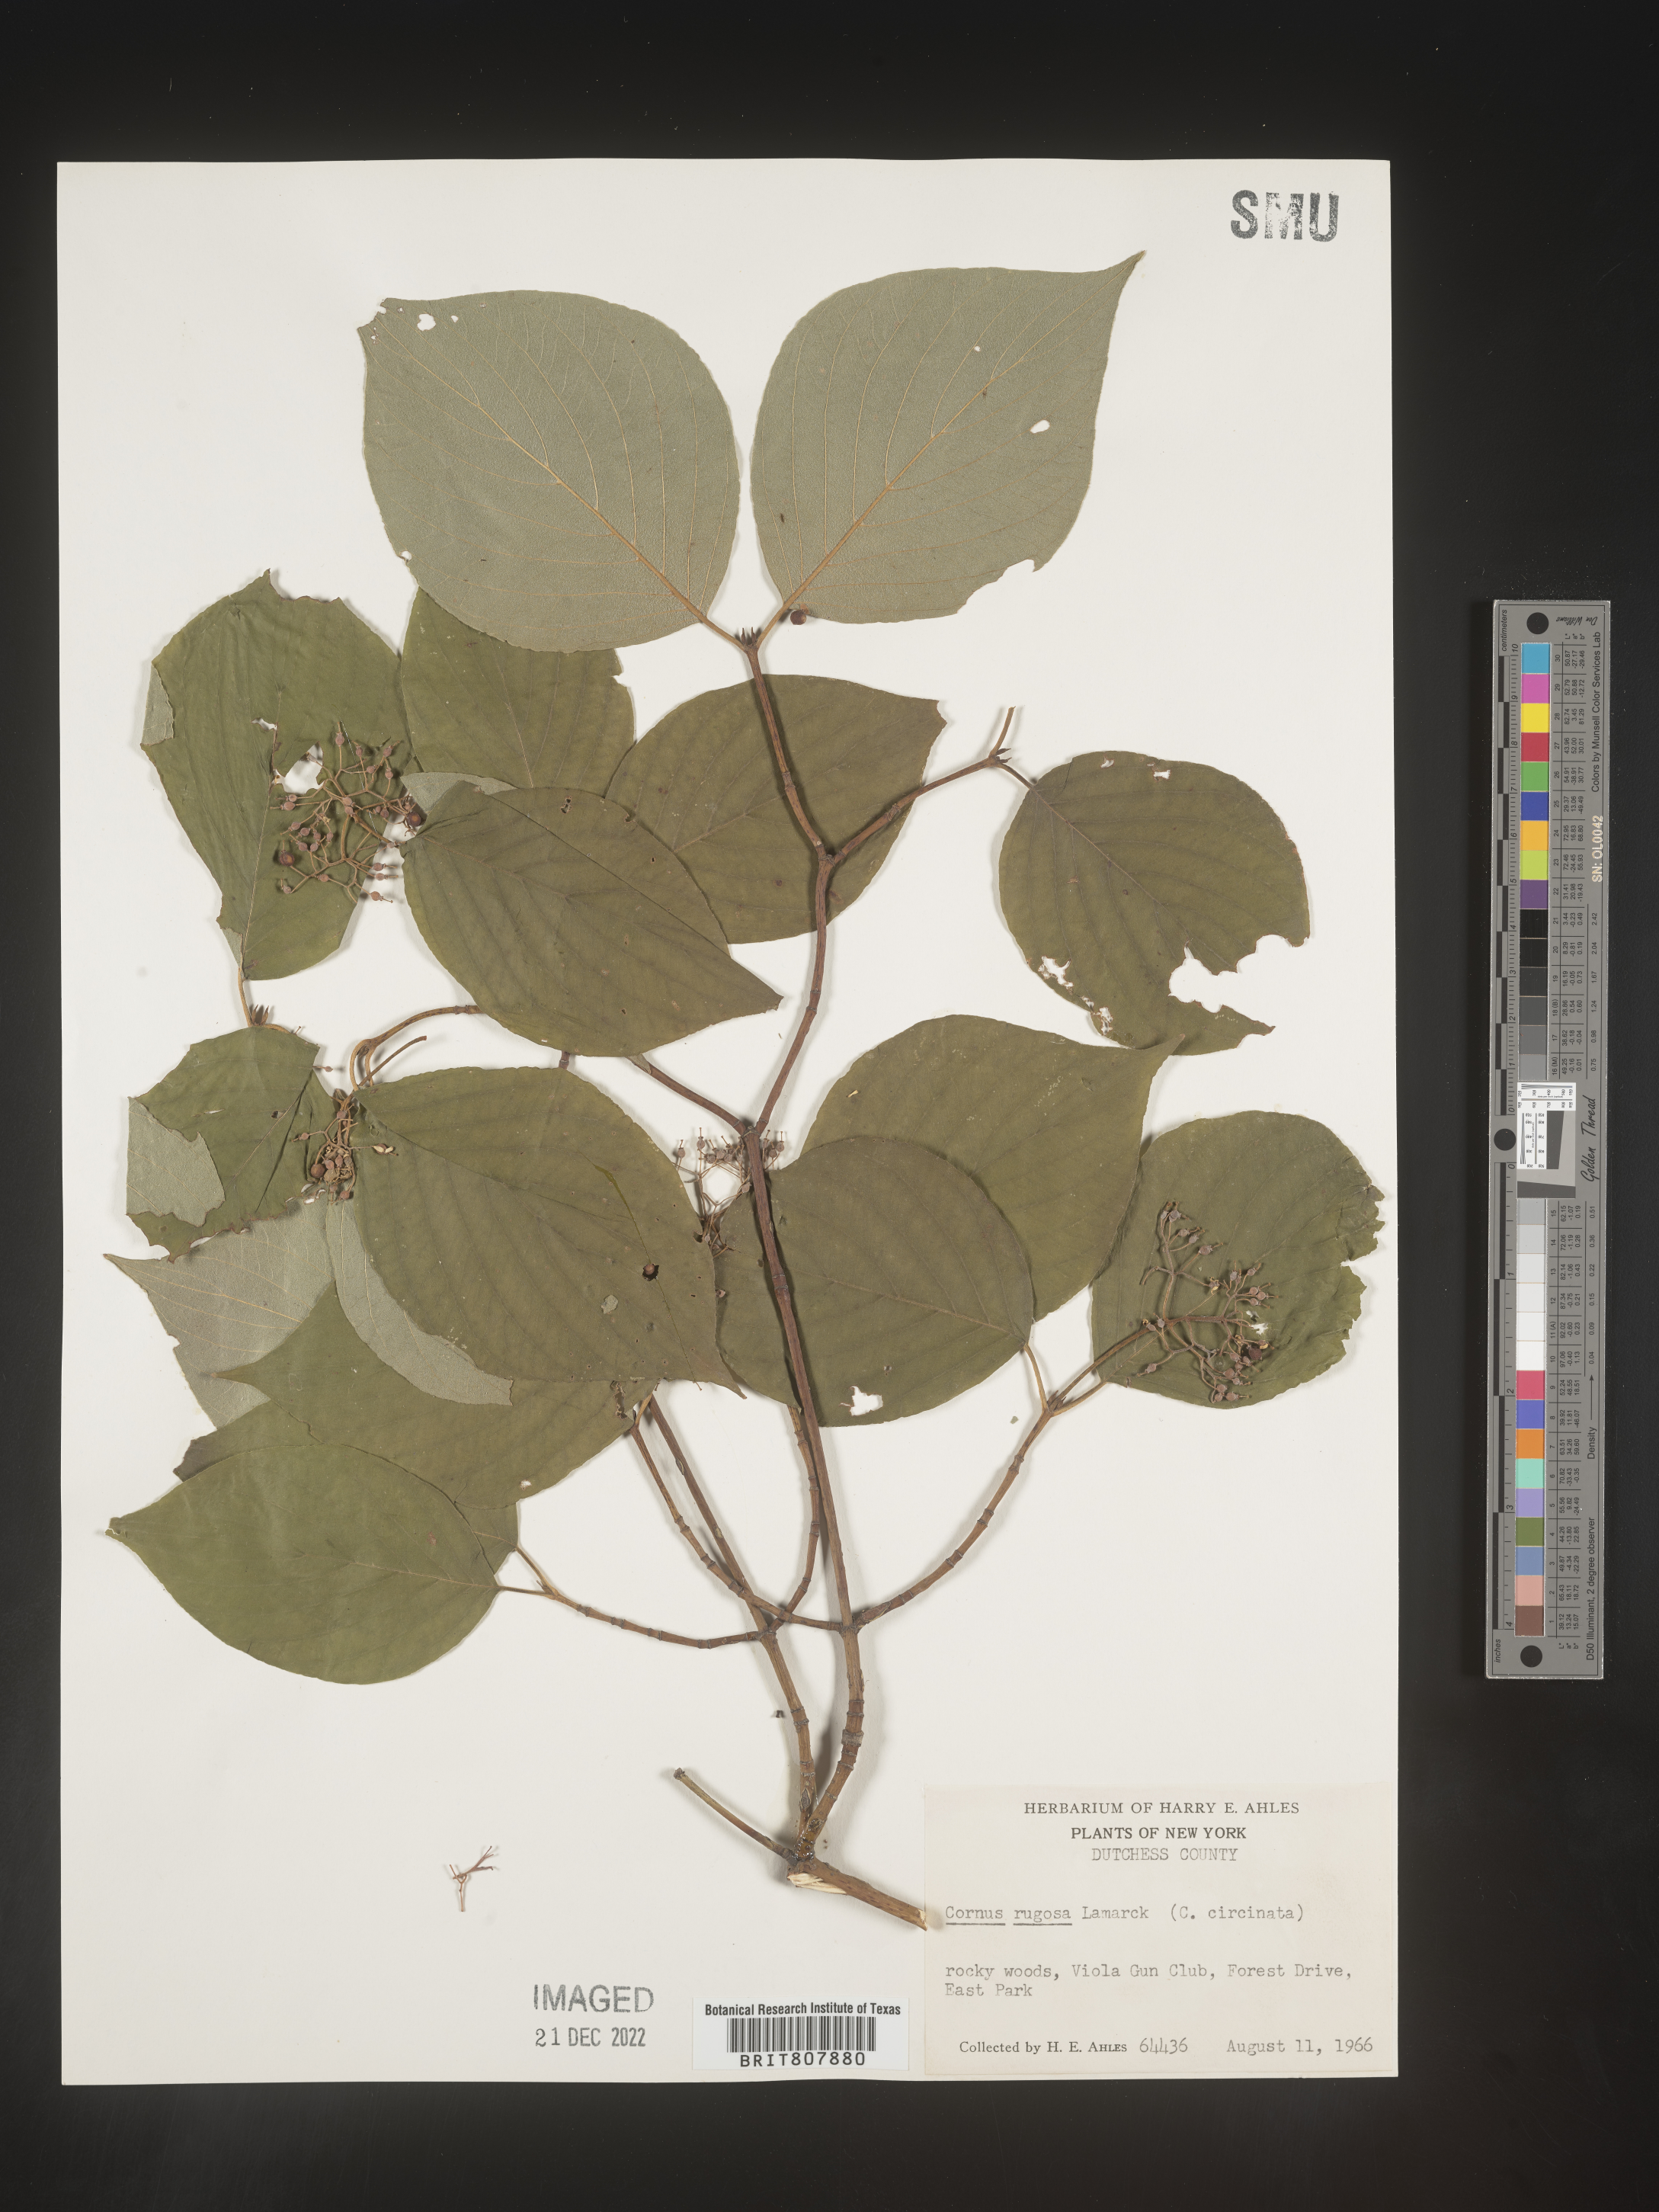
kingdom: Plantae
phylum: Tracheophyta
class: Magnoliopsida
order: Cornales
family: Cornaceae
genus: Cornus
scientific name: Cornus rugosa
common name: Round-leaf dogwood
